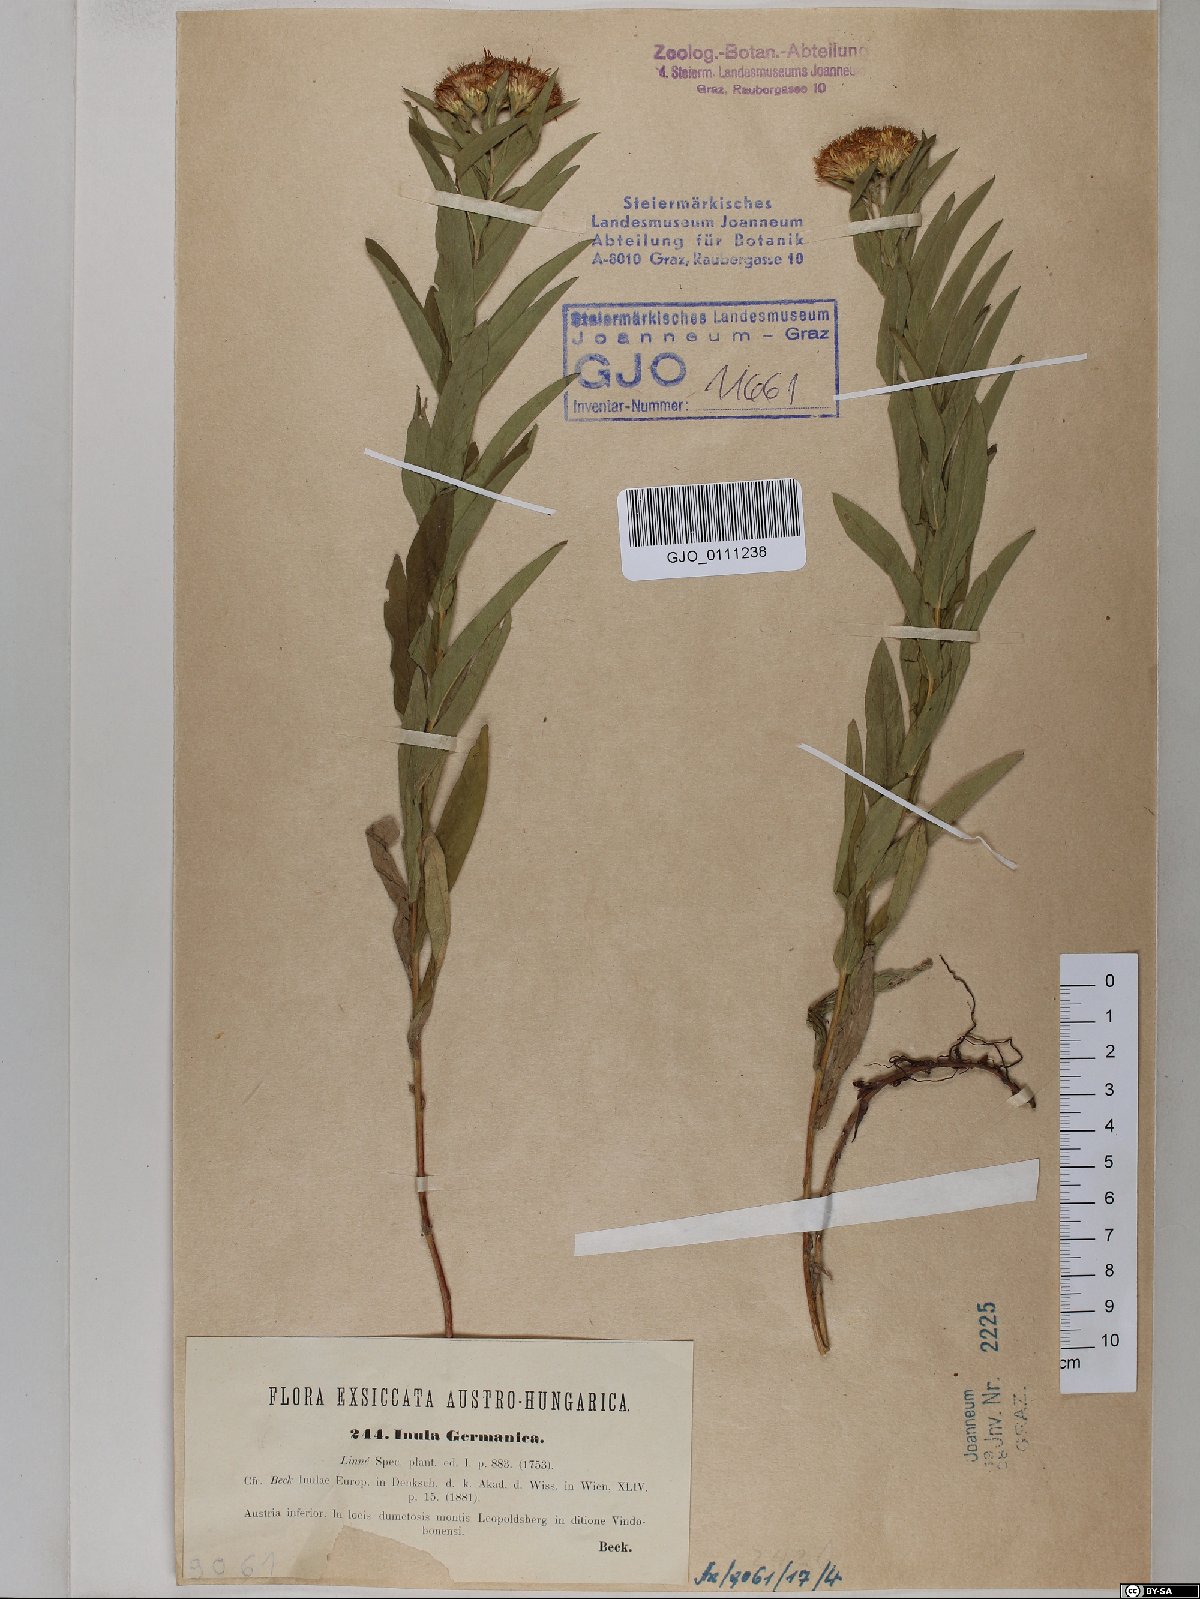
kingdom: Plantae
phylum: Tracheophyta
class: Magnoliopsida
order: Asterales
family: Asteraceae
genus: Pentanema
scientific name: Pentanema germanicum
